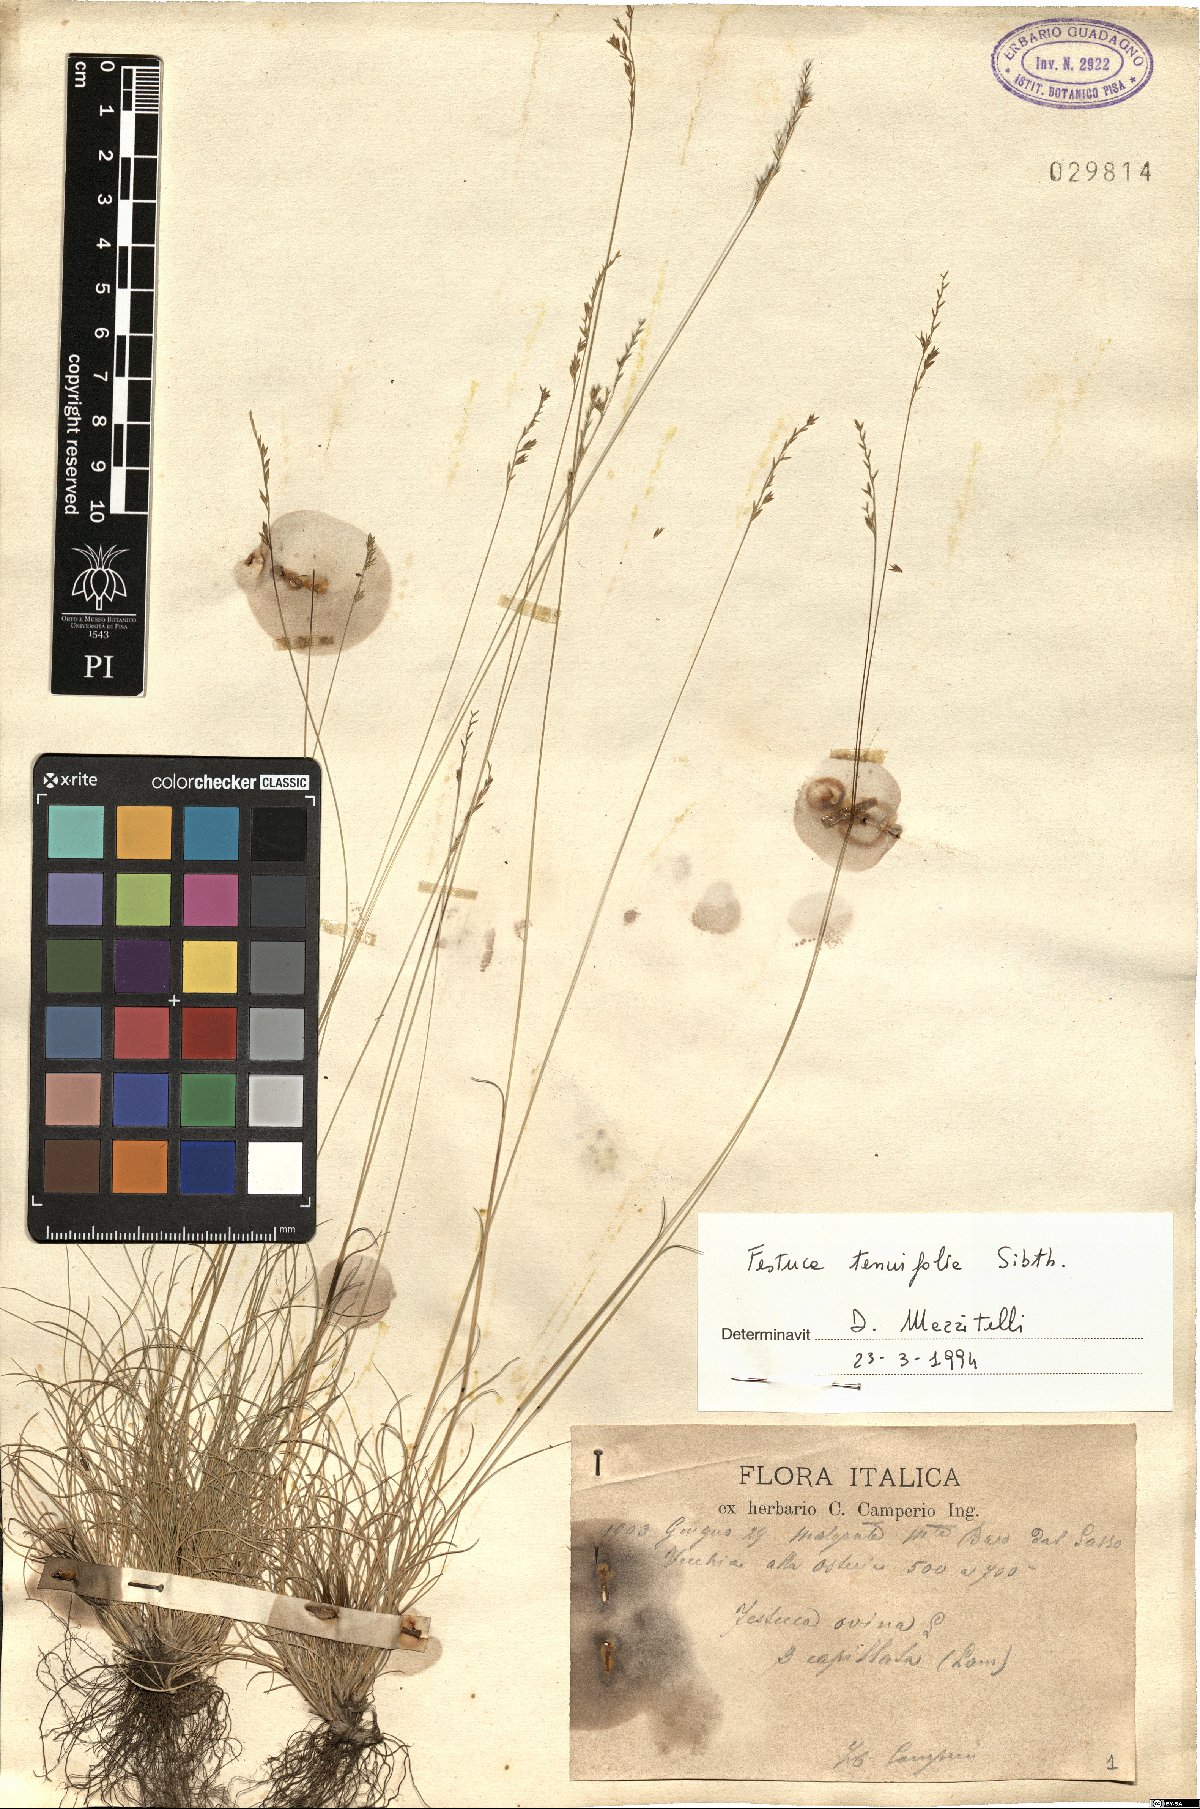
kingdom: Plantae
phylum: Tracheophyta
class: Liliopsida
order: Poales
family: Poaceae
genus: Festuca
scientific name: Festuca filiformis
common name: Fine-leaved sheep's-fescue
